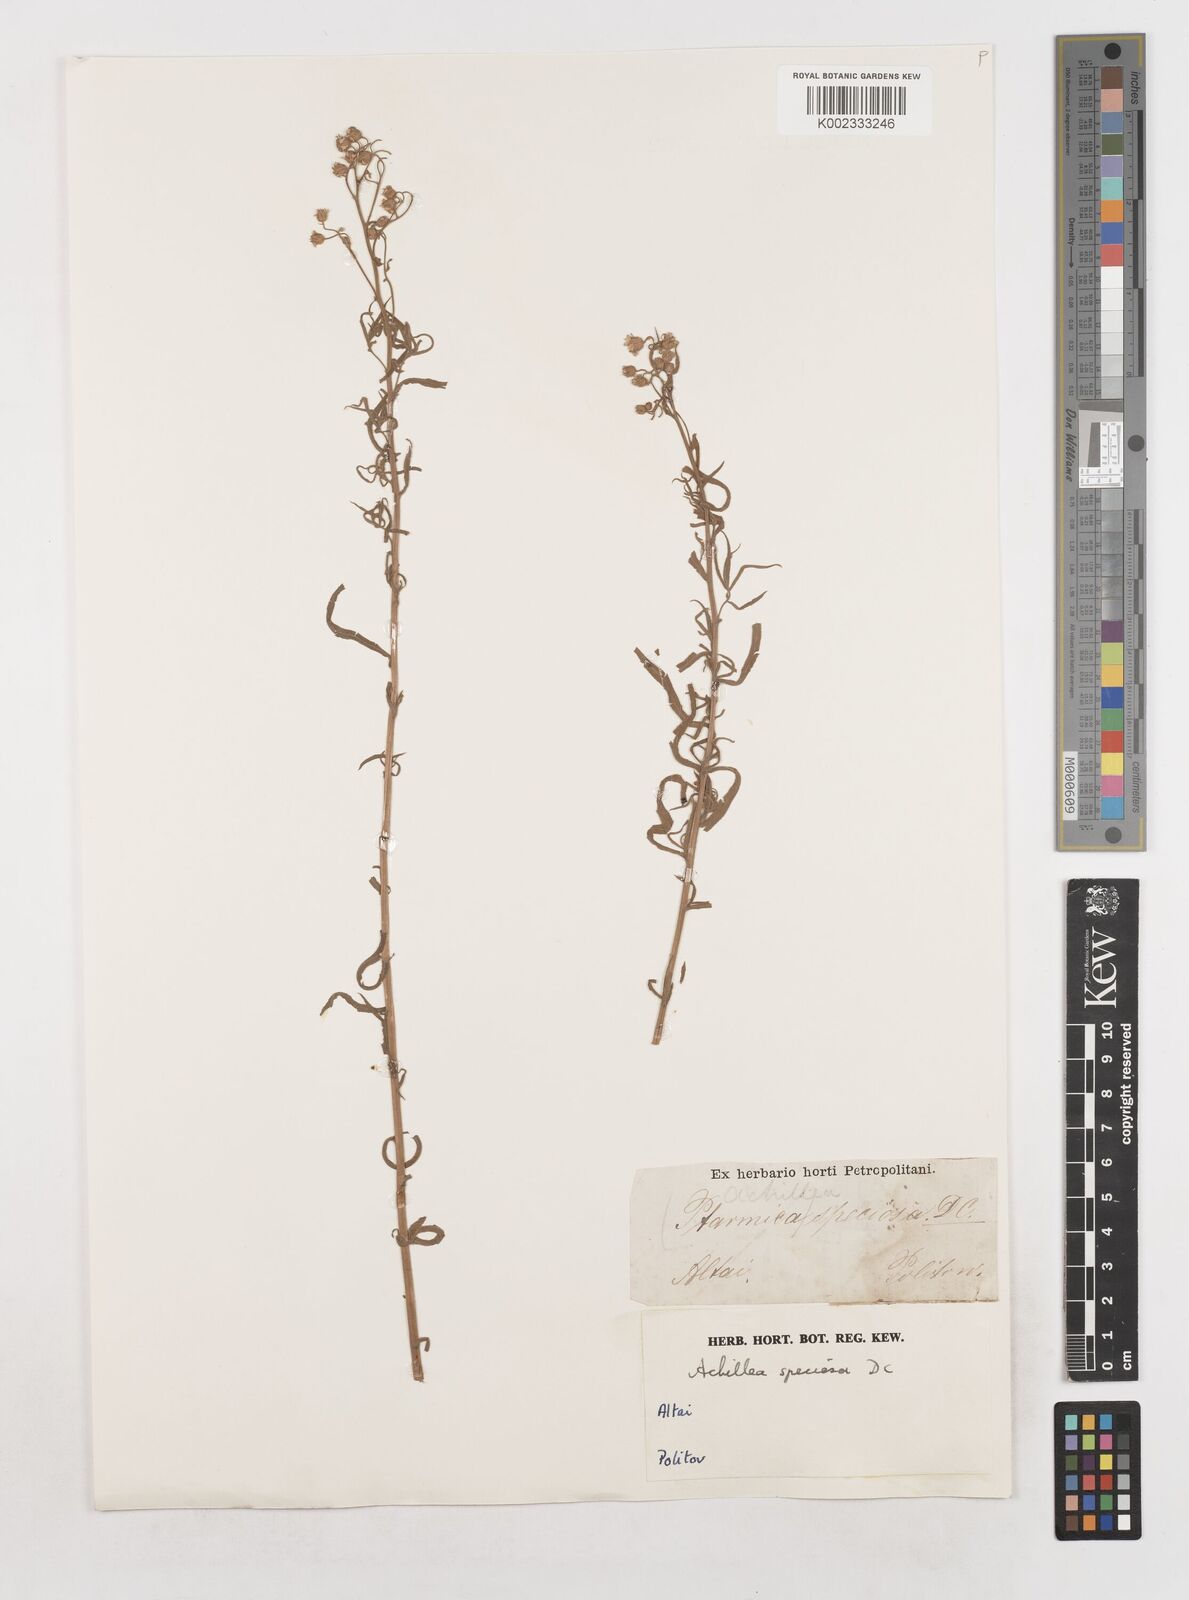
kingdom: Plantae
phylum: Tracheophyta
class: Magnoliopsida
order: Asterales
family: Asteraceae
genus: Achillea
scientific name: Achillea ptarmica
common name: Sneezeweed
